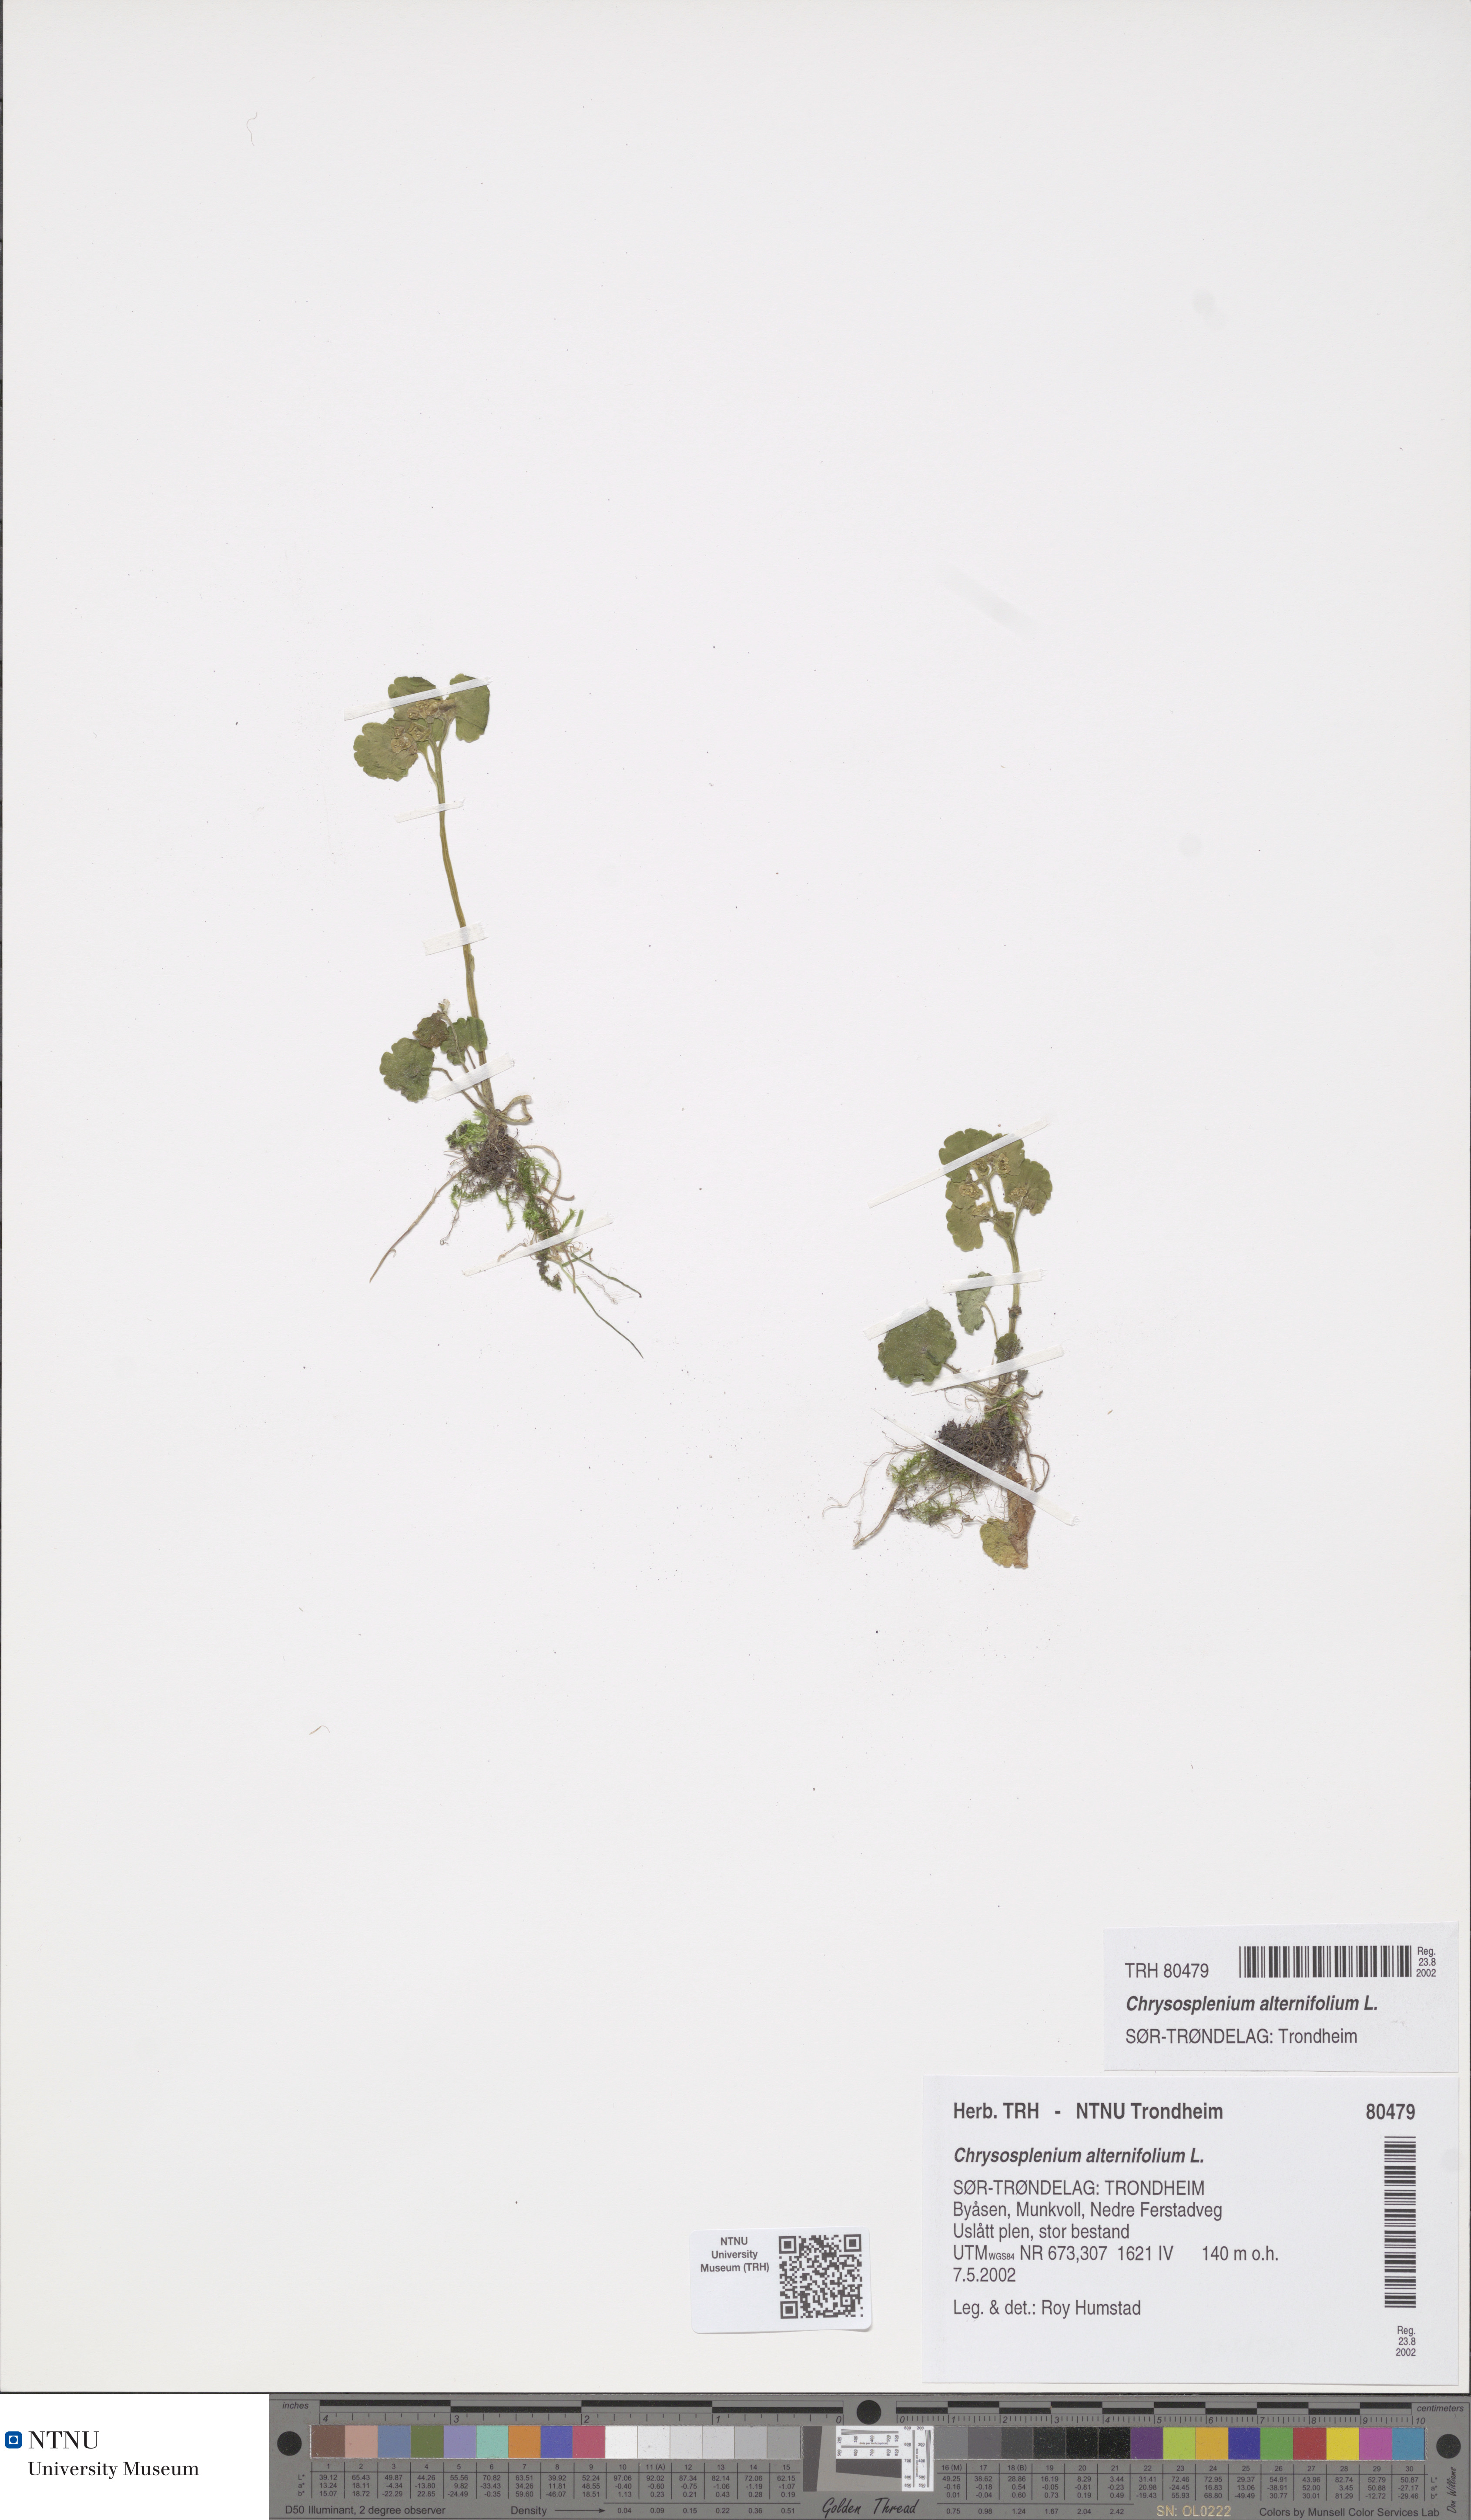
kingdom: Plantae
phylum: Tracheophyta
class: Magnoliopsida
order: Saxifragales
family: Saxifragaceae
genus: Chrysosplenium
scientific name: Chrysosplenium alternifolium
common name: Alternate-leaved golden-saxifrage
